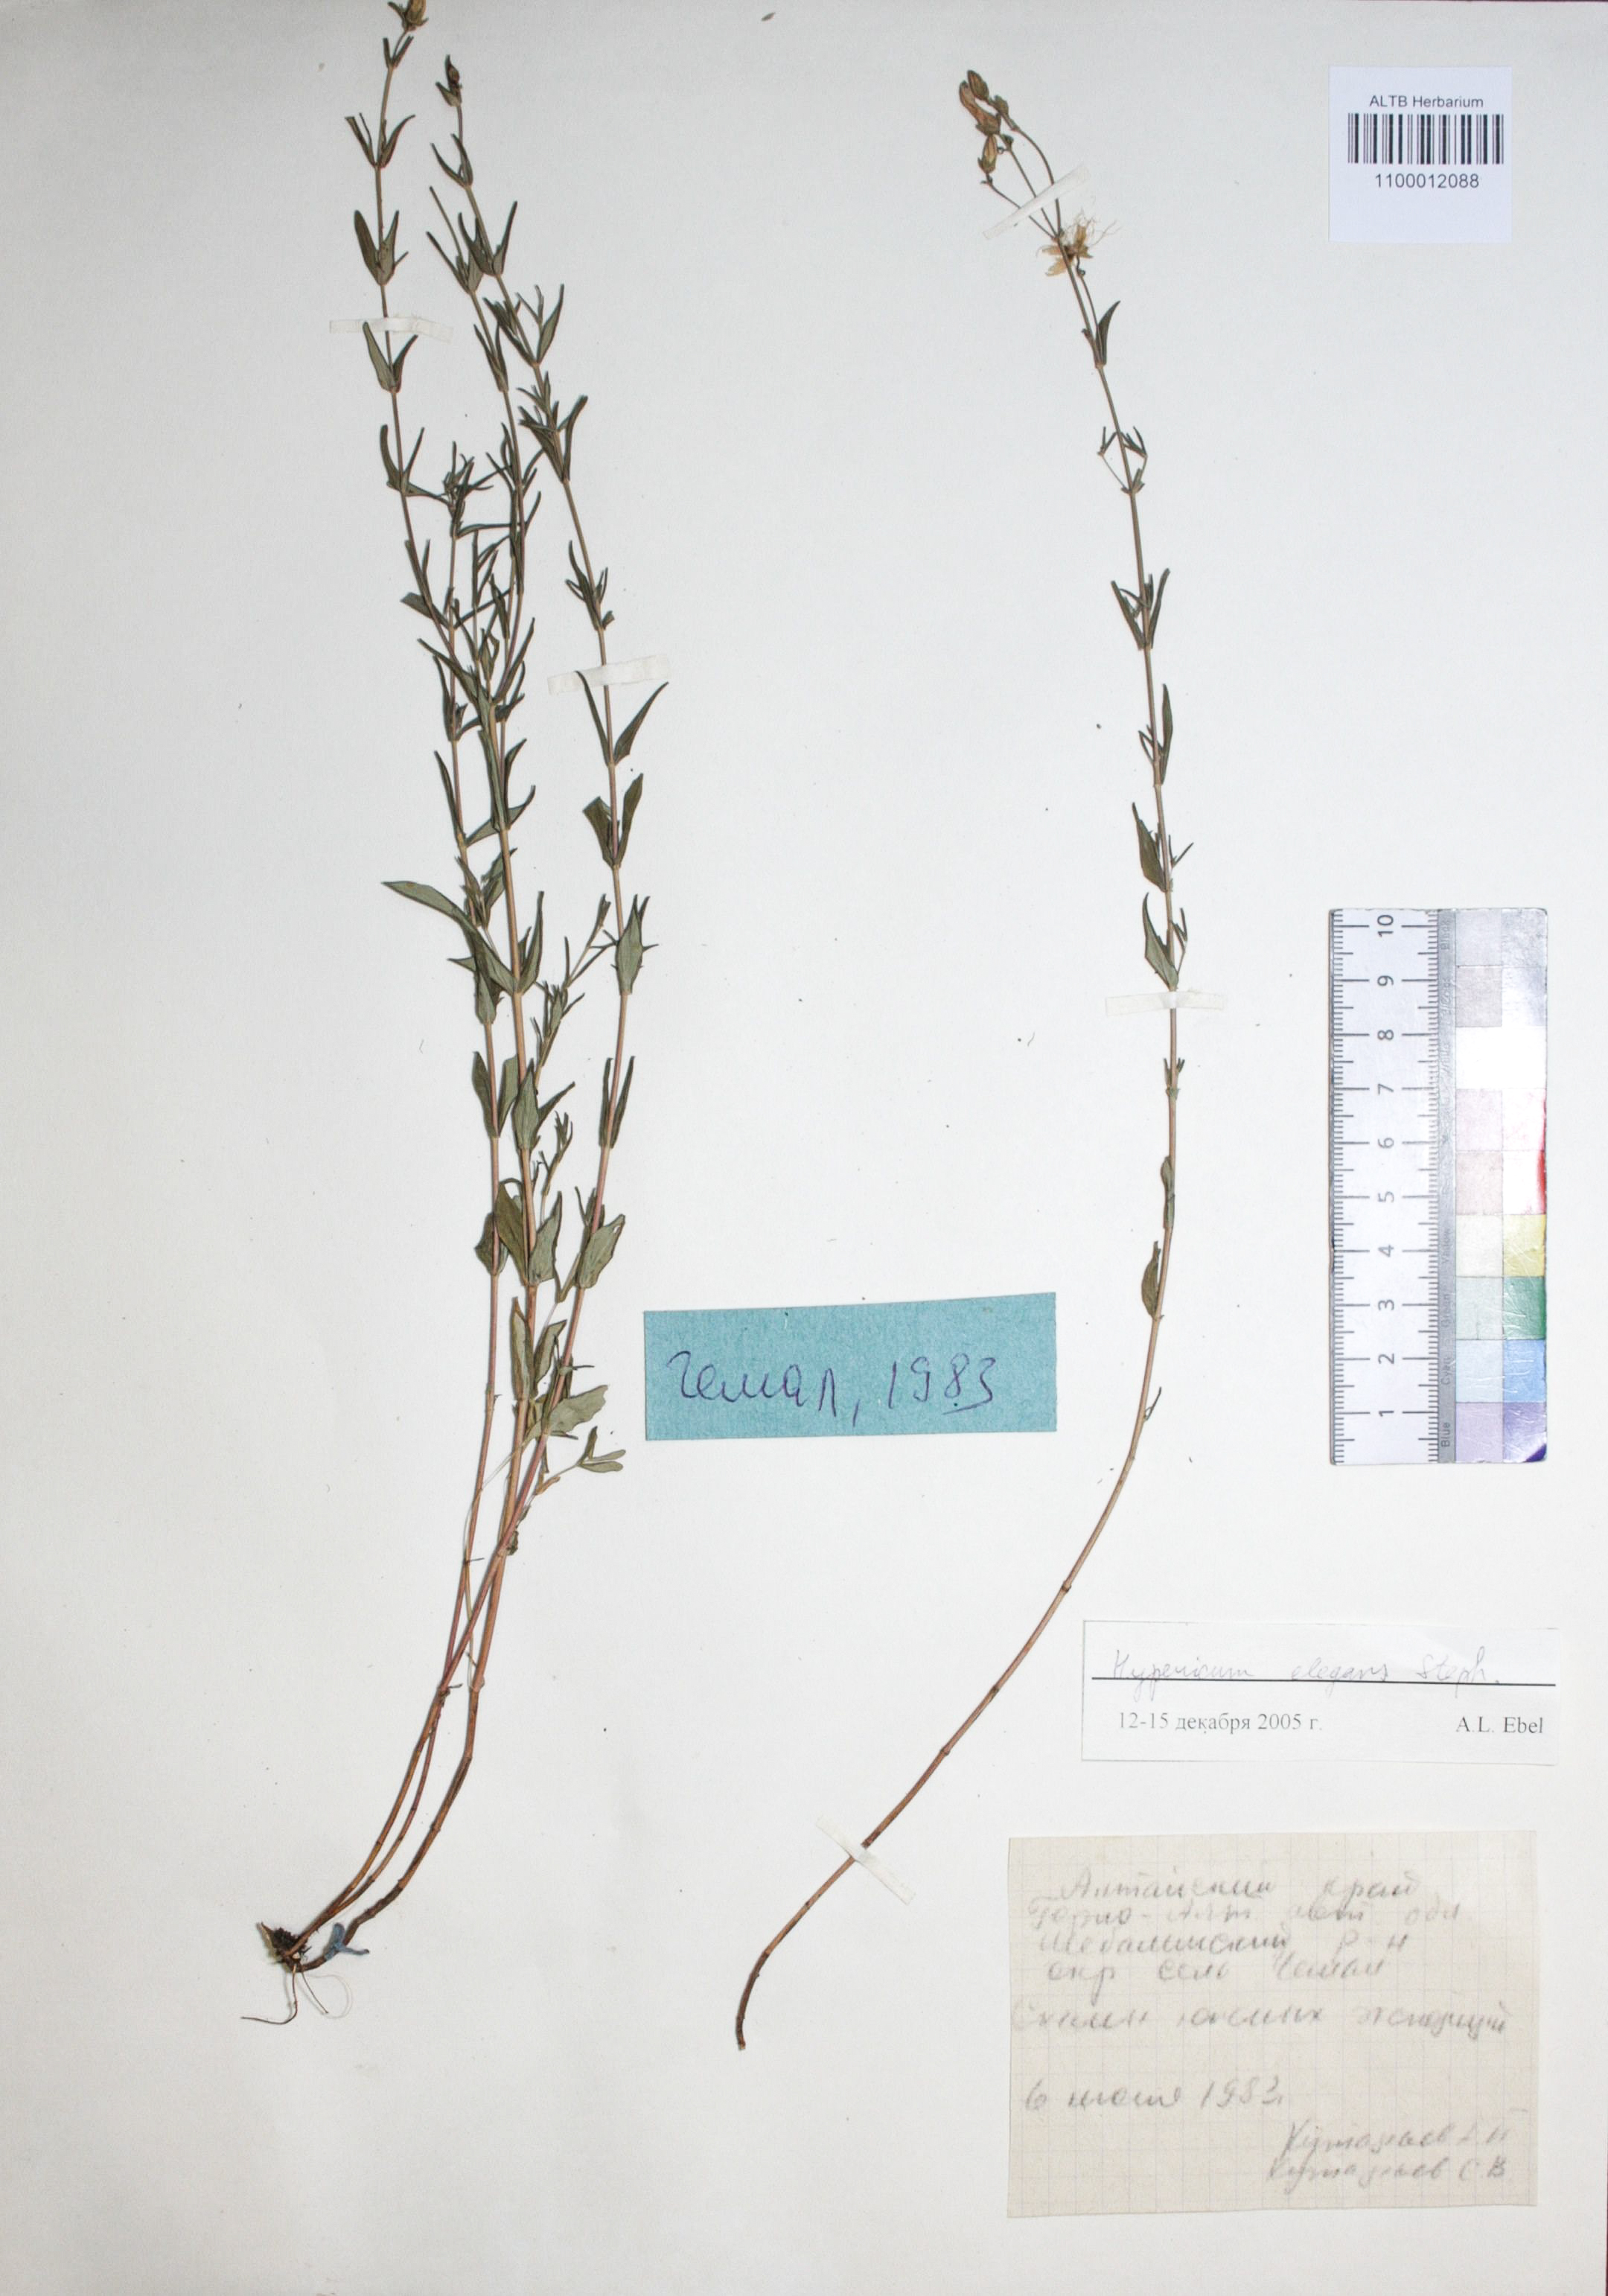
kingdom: Plantae
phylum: Tracheophyta
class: Magnoliopsida
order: Malpighiales
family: Hypericaceae
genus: Hypericum
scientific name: Hypericum elegans
